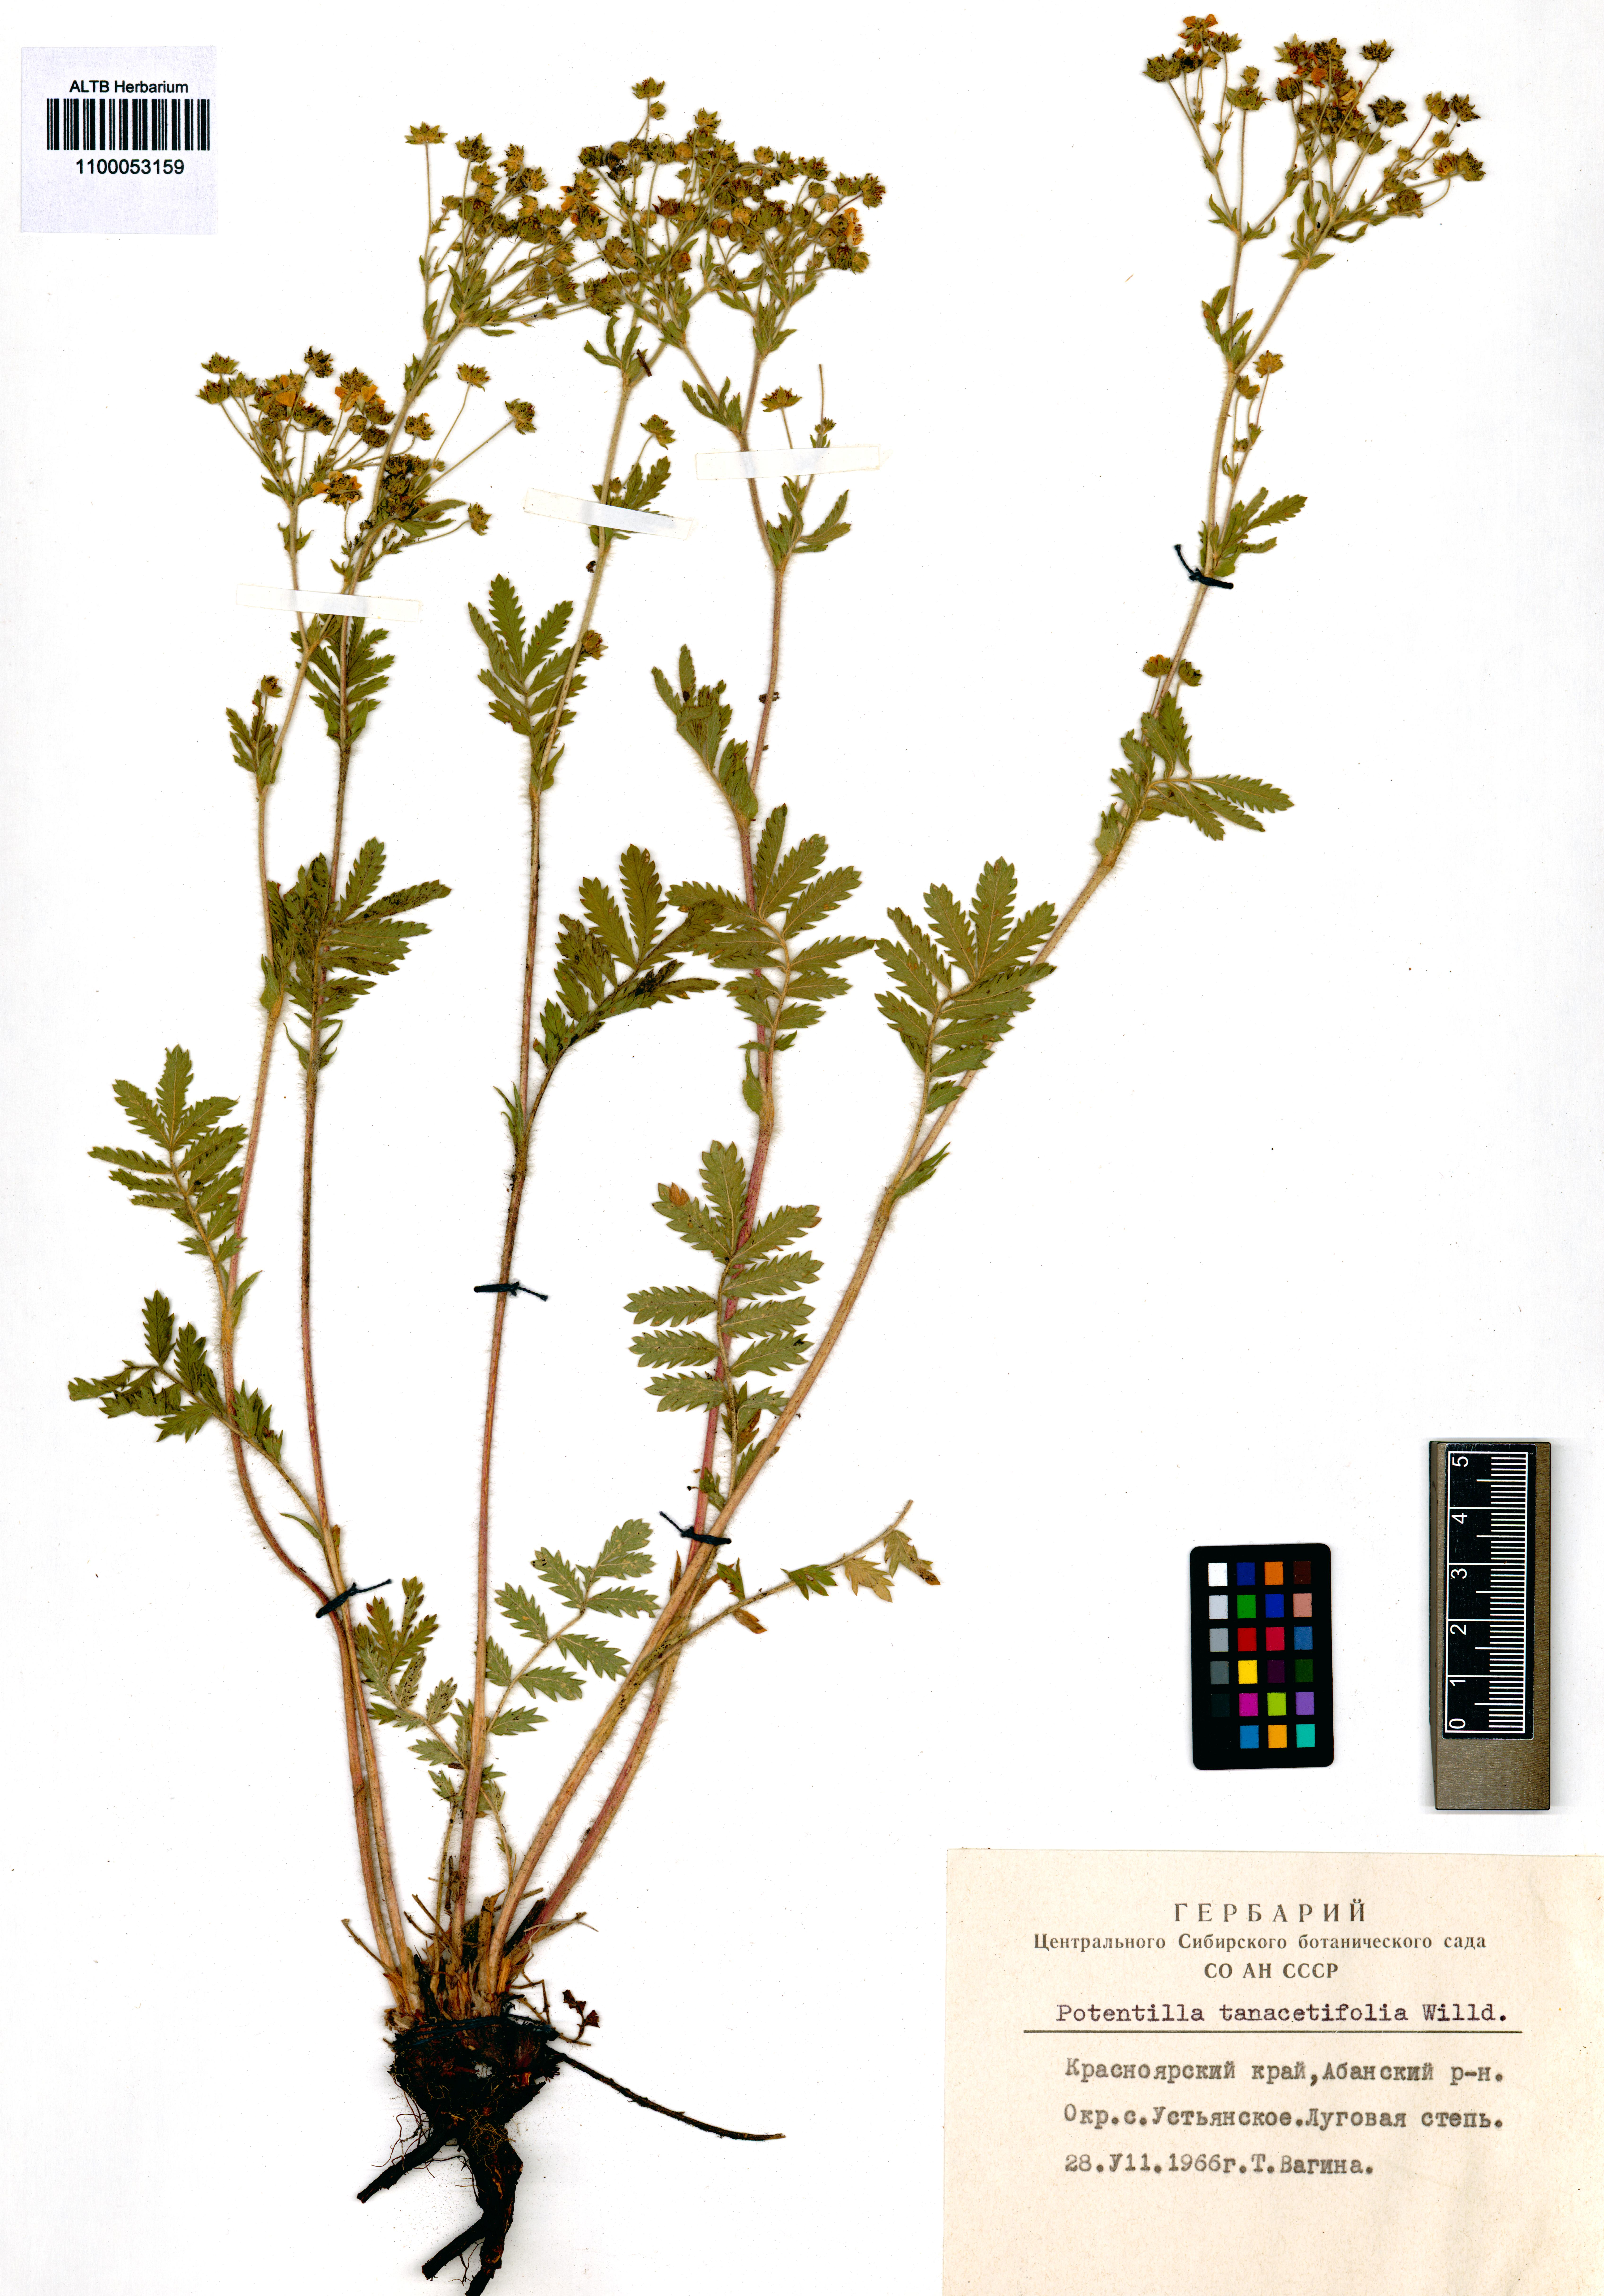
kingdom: Plantae
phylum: Tracheophyta
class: Magnoliopsida
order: Rosales
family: Rosaceae
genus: Potentilla
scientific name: Potentilla tanacetifolia
